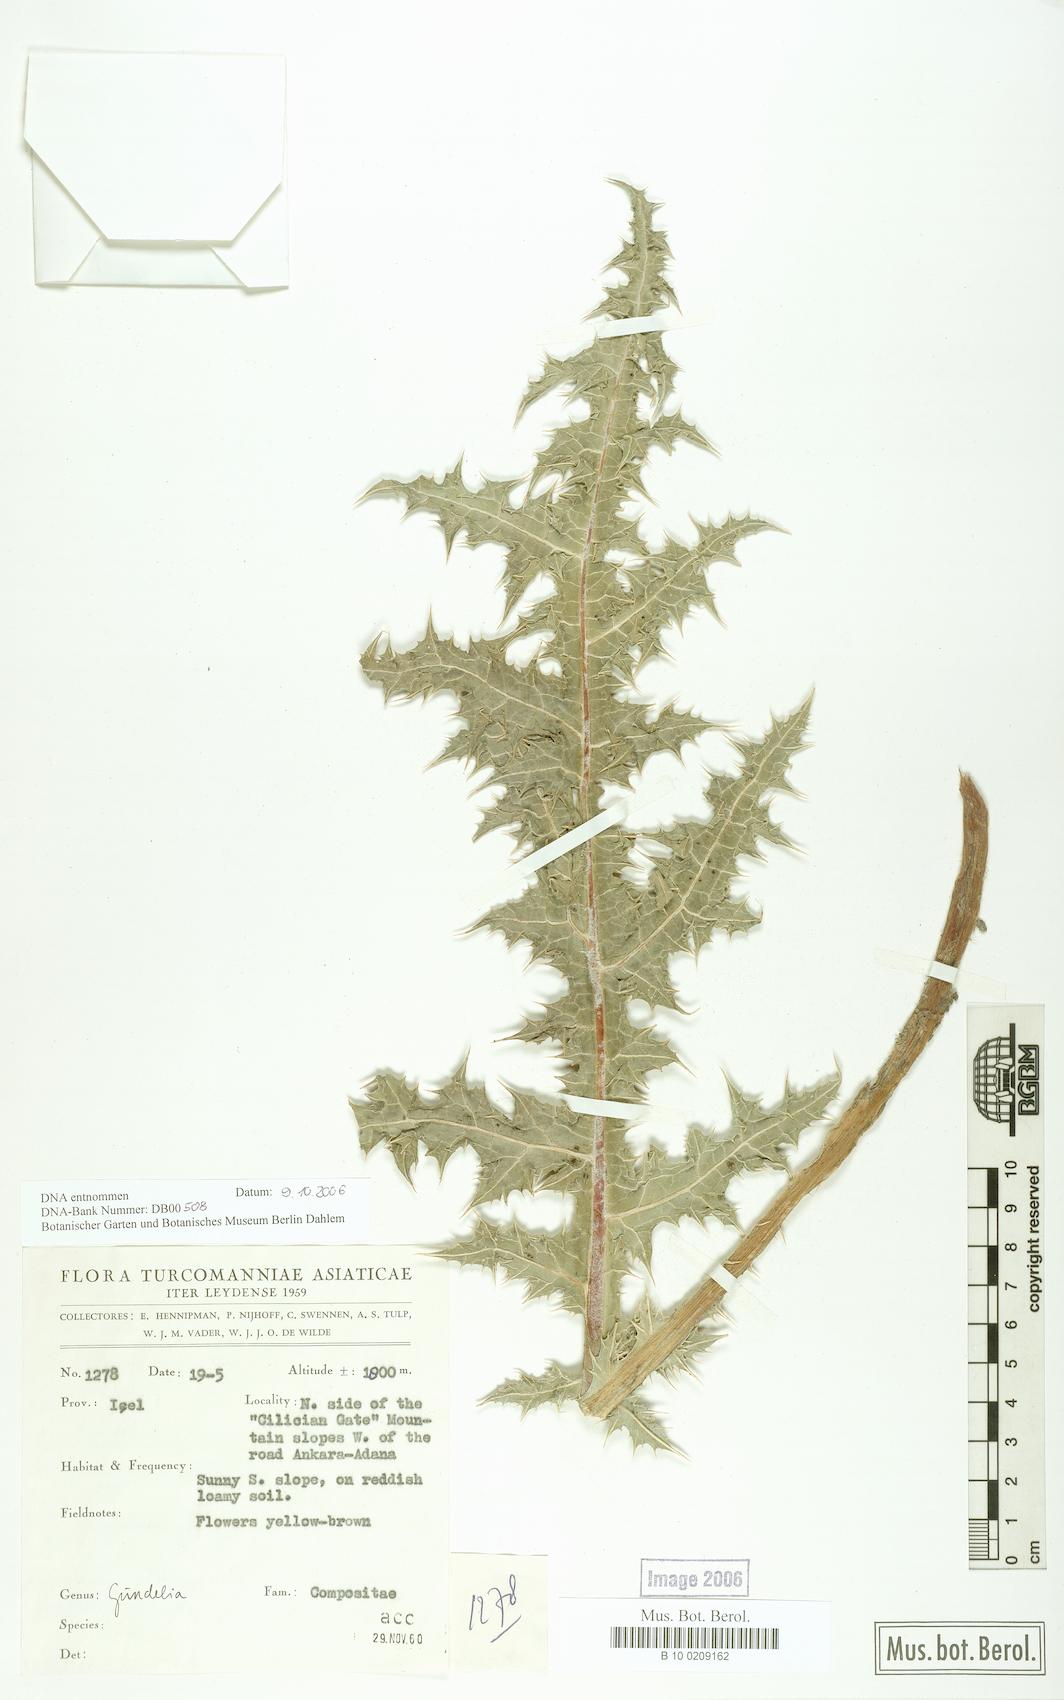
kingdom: Plantae
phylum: Tracheophyta
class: Magnoliopsida
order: Asterales
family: Asteraceae
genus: Gundelia
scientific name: Gundelia
